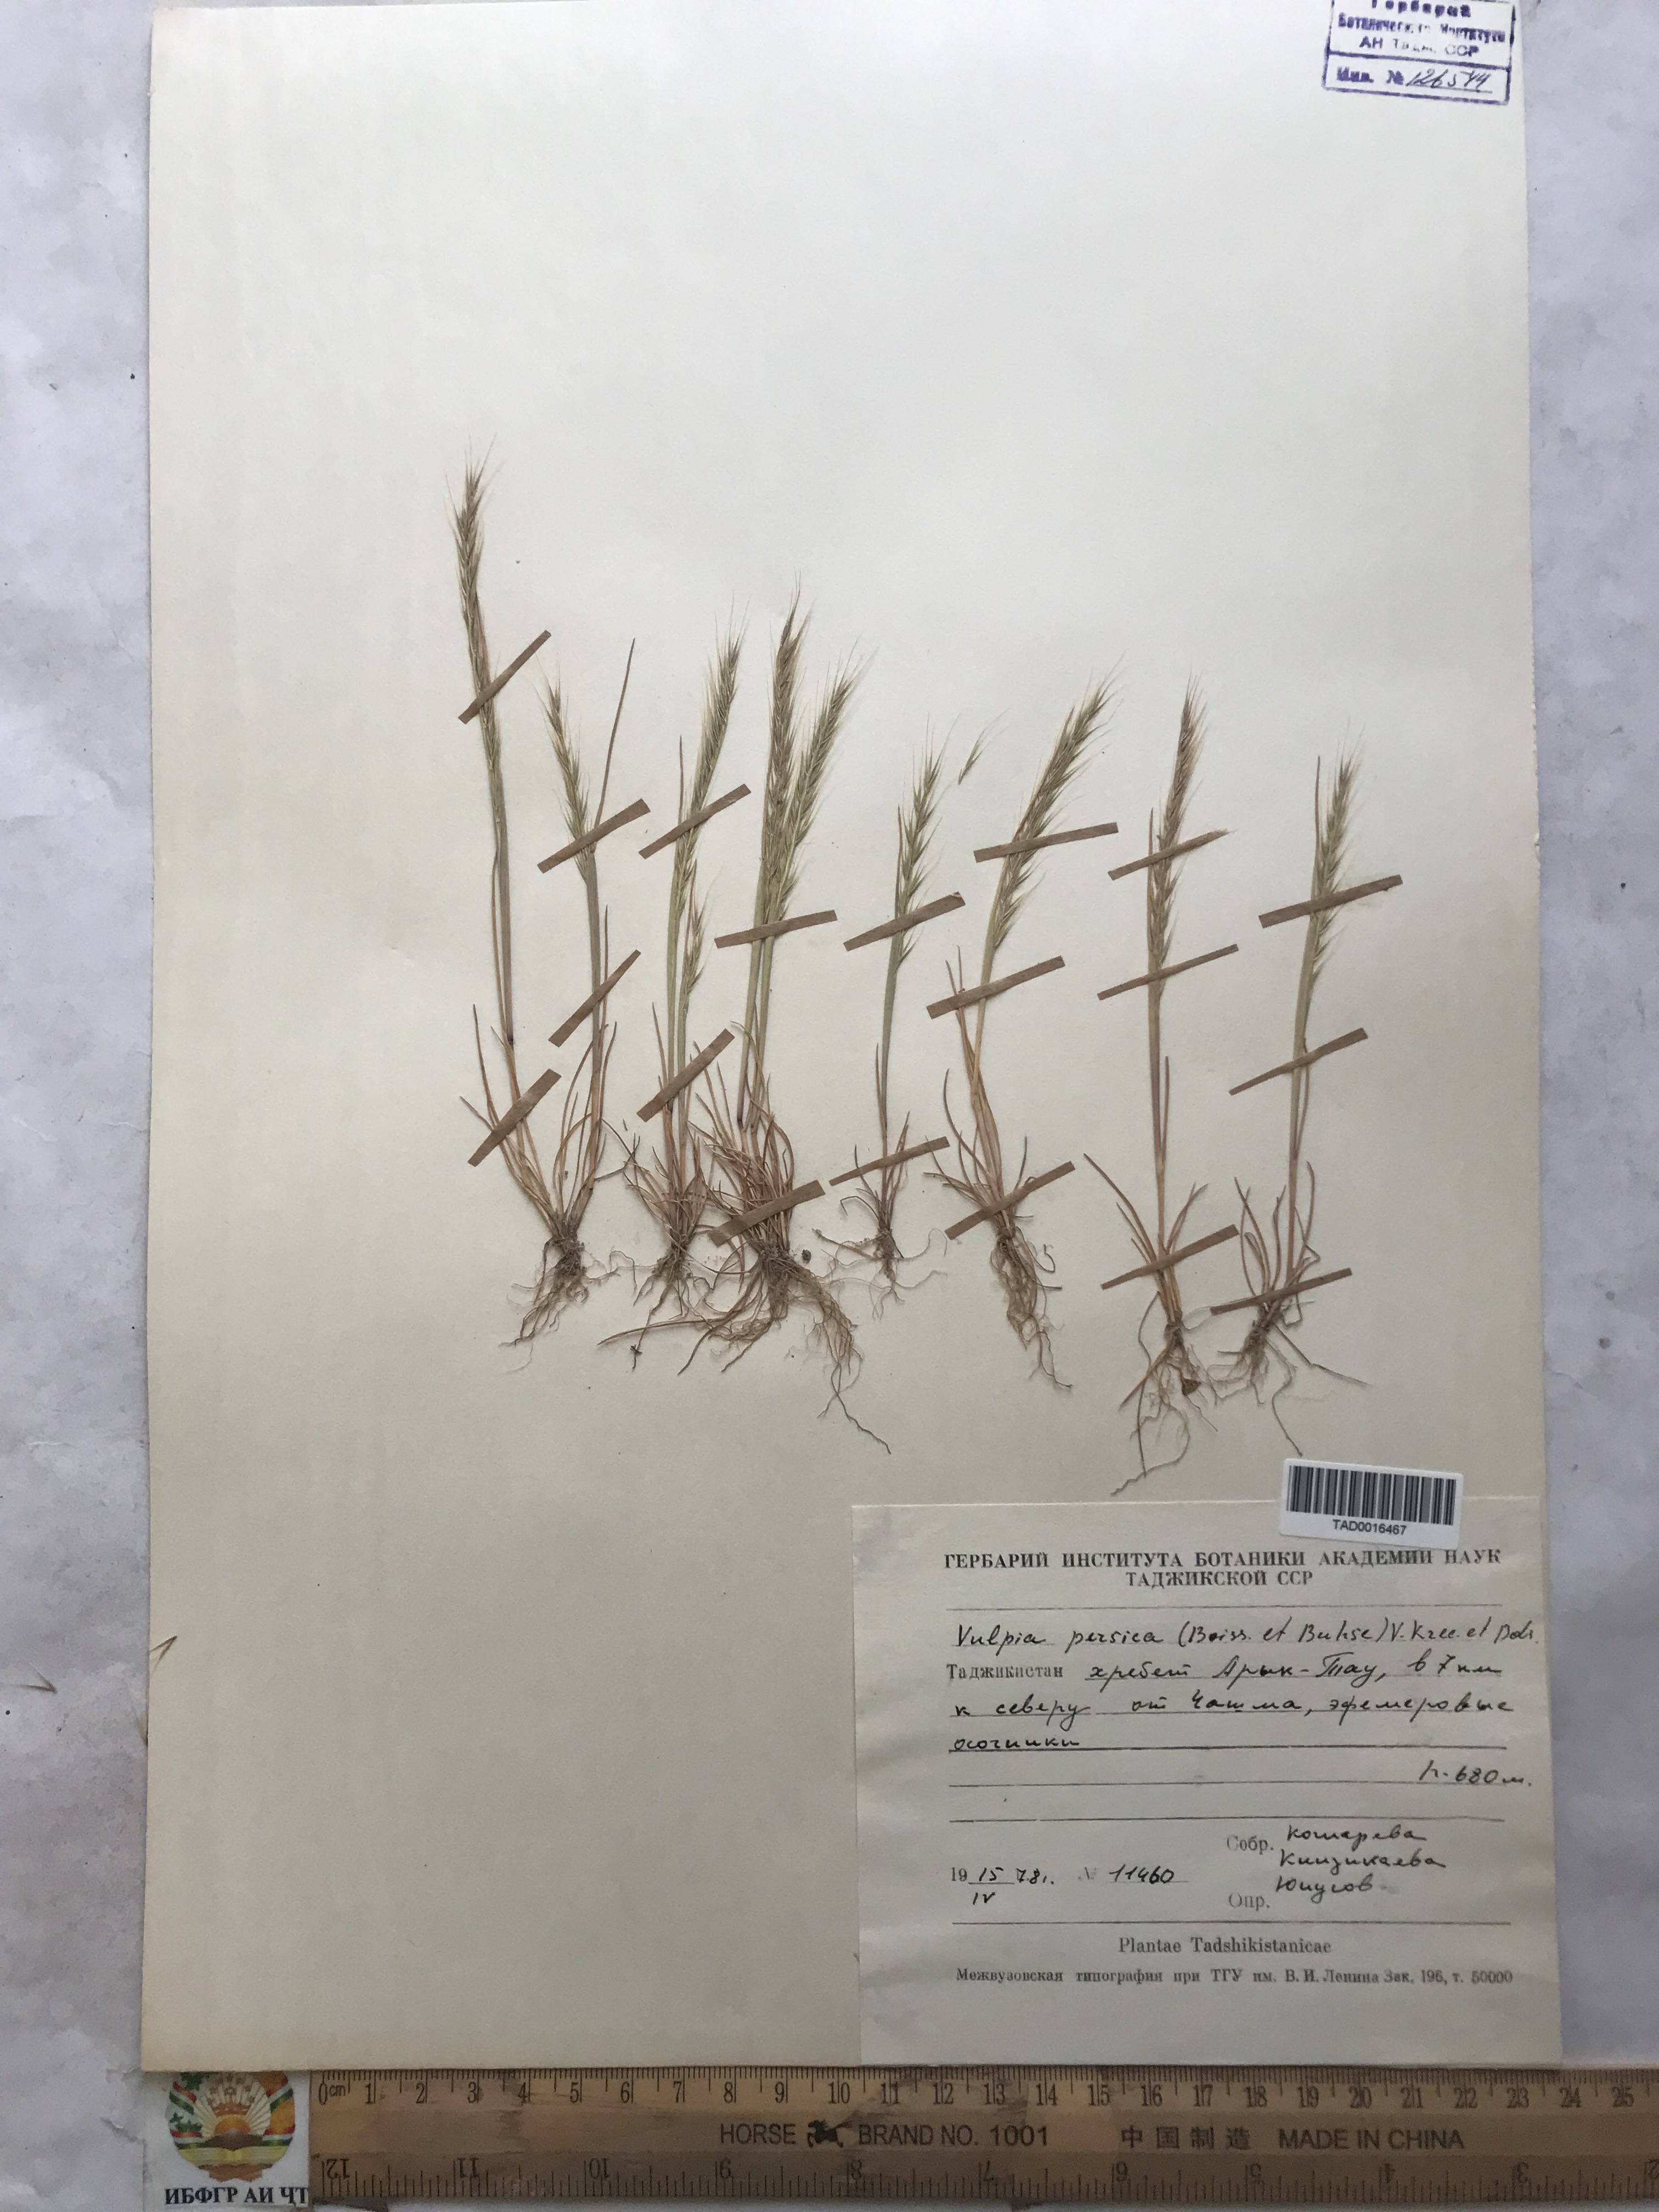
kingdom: Plantae
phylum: Tracheophyta
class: Liliopsida
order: Poales
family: Poaceae
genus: Festuca
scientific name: Festuca Vulpia persica
